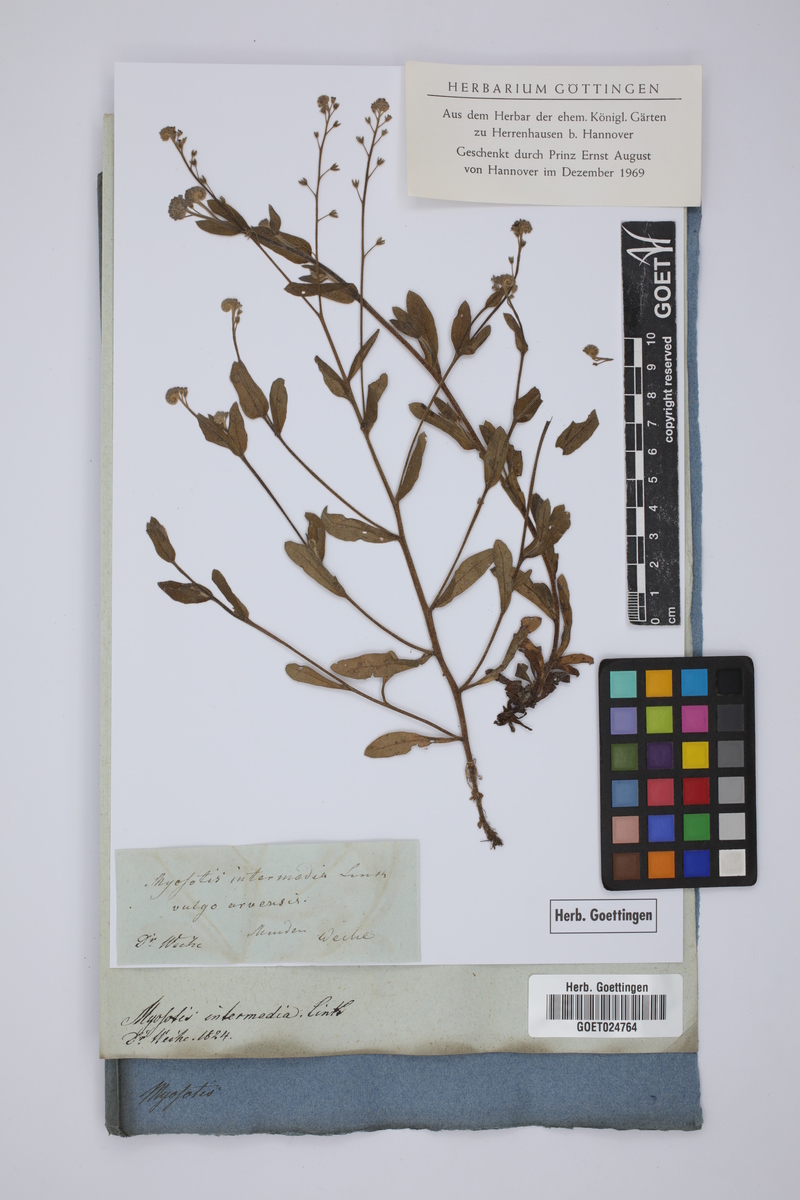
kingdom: Plantae
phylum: Tracheophyta
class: Magnoliopsida
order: Boraginales
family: Boraginaceae
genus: Myosotis
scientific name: Myosotis arvensis
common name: Field forget-me-not
